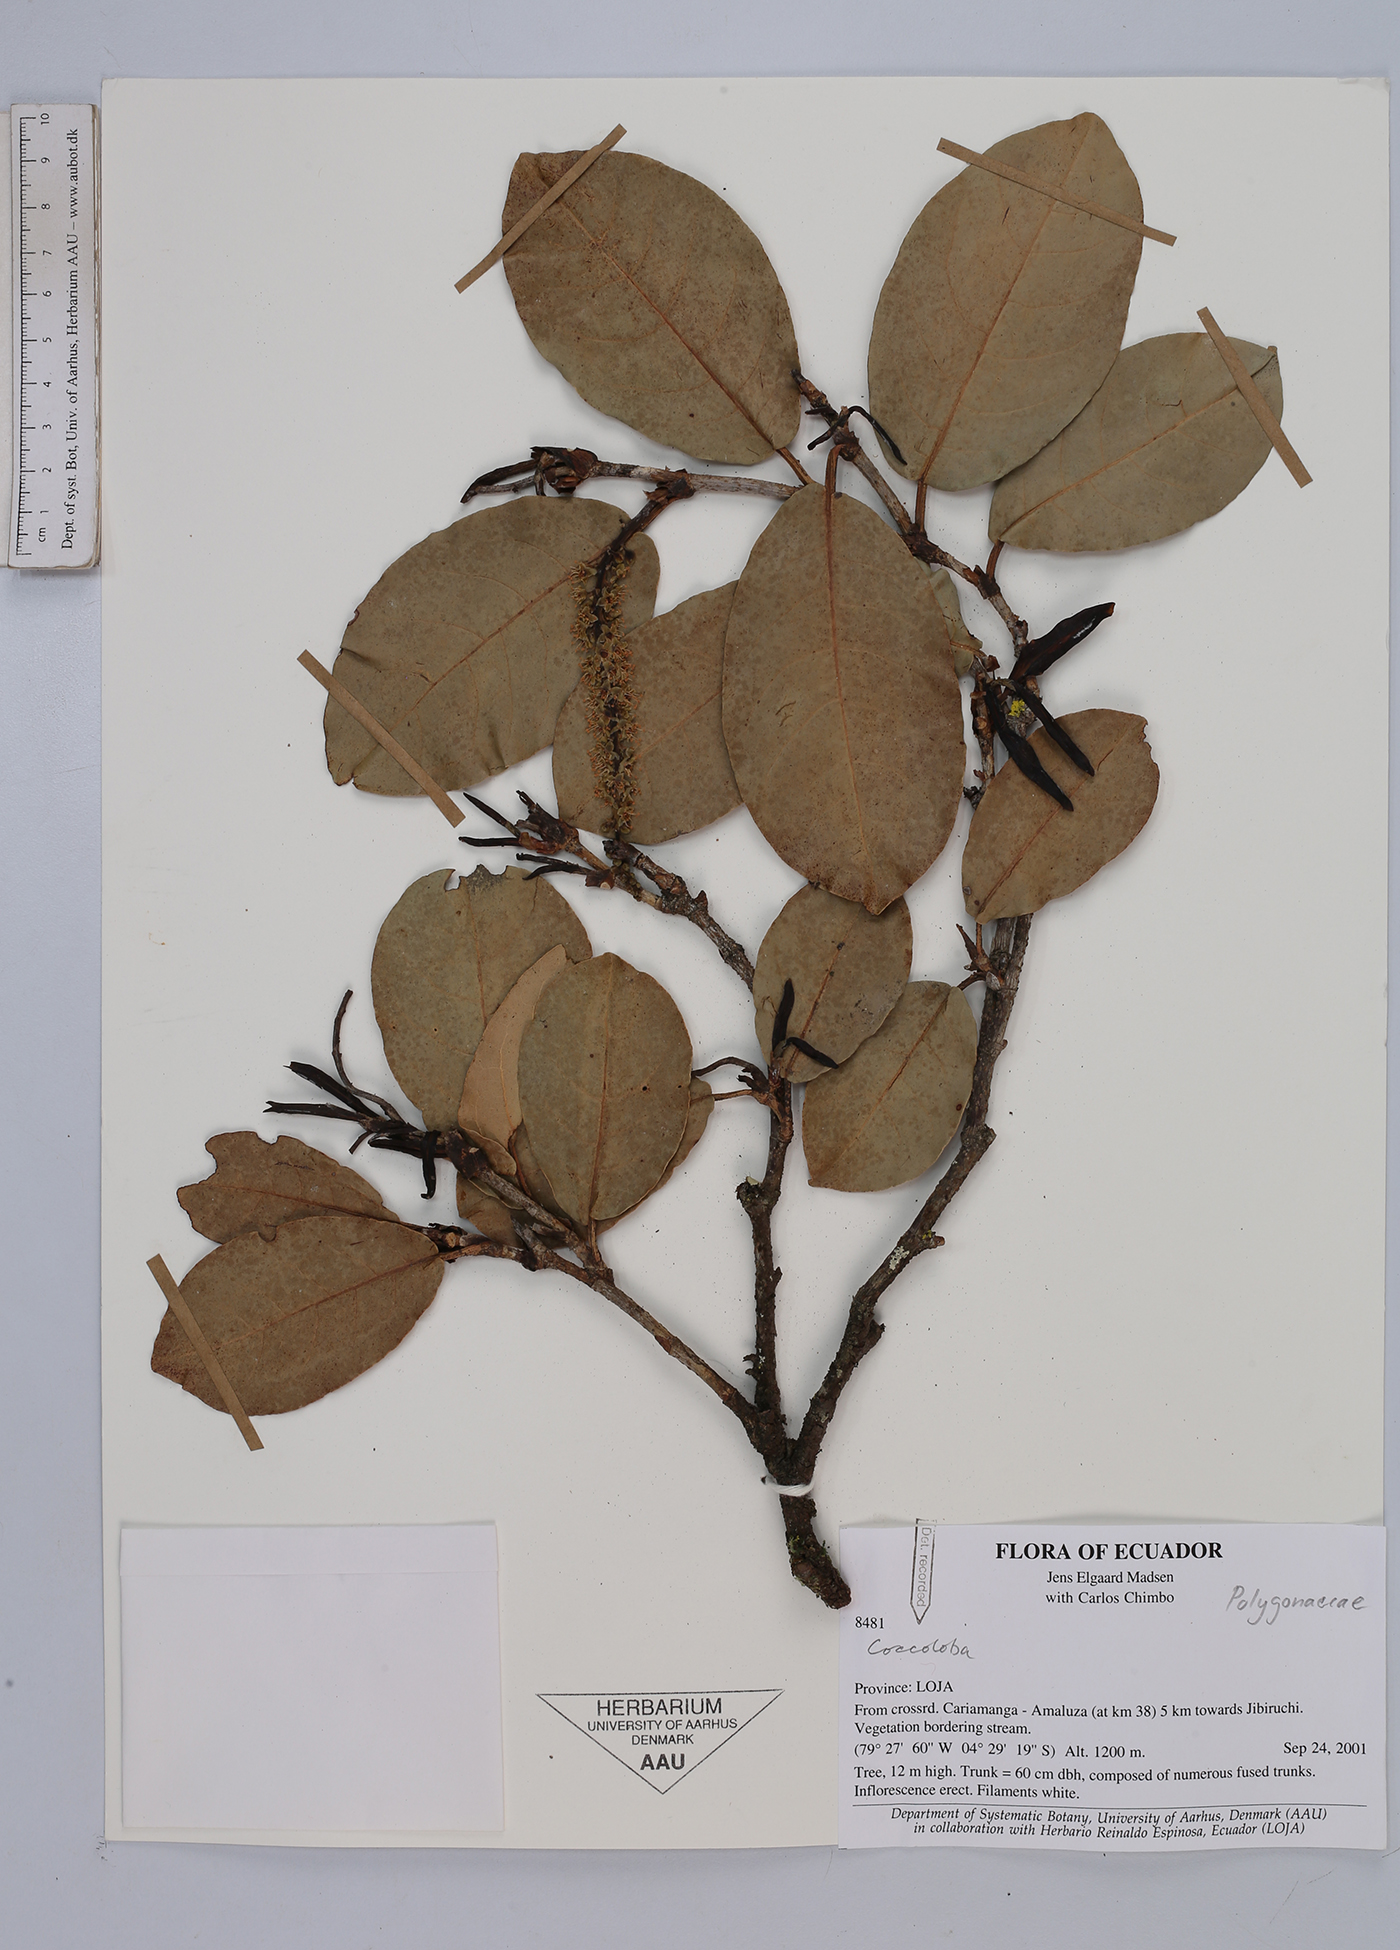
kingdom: Plantae
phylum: Tracheophyta
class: Magnoliopsida
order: Caryophyllales
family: Polygonaceae
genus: Coccoloba
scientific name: Coccoloba
